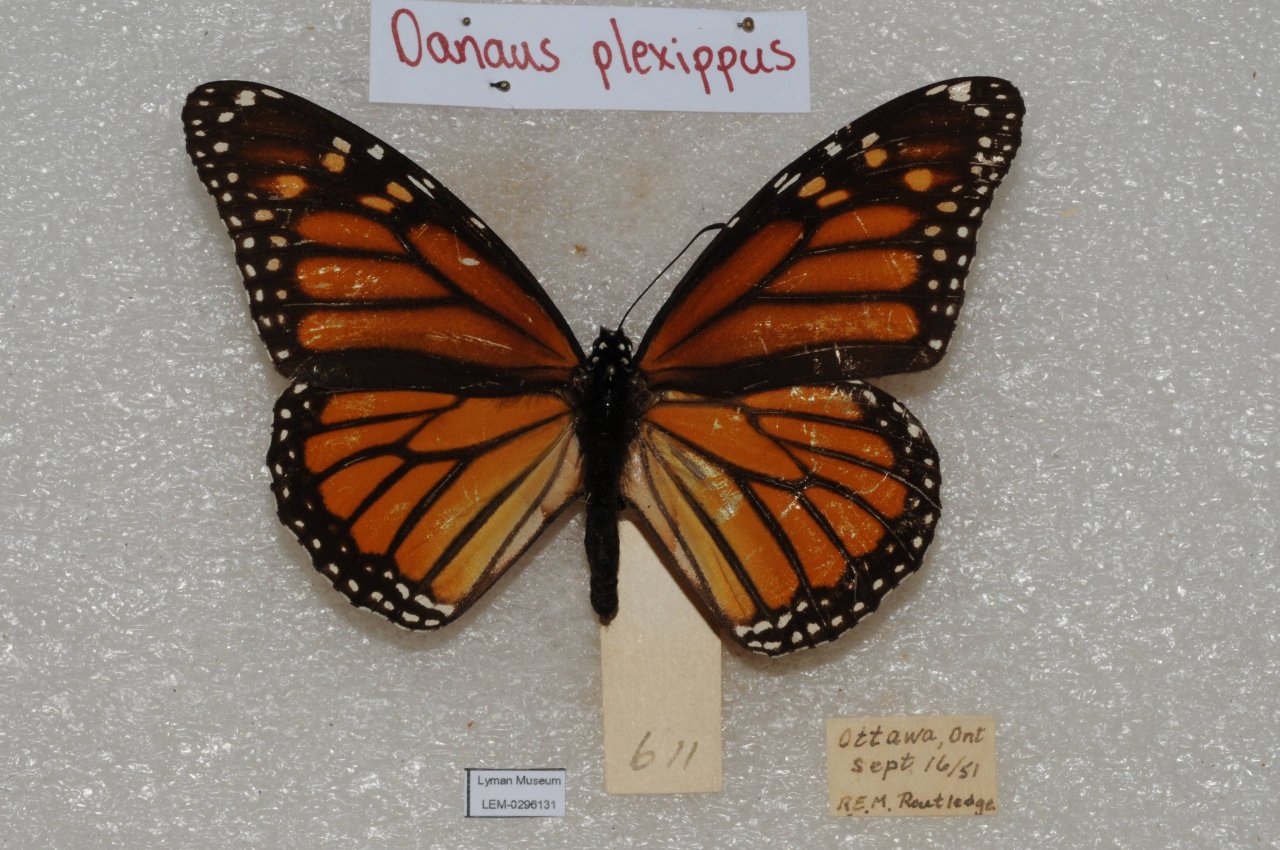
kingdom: Animalia
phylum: Arthropoda
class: Insecta
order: Lepidoptera
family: Nymphalidae
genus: Danaus
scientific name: Danaus plexippus
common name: Monarch
